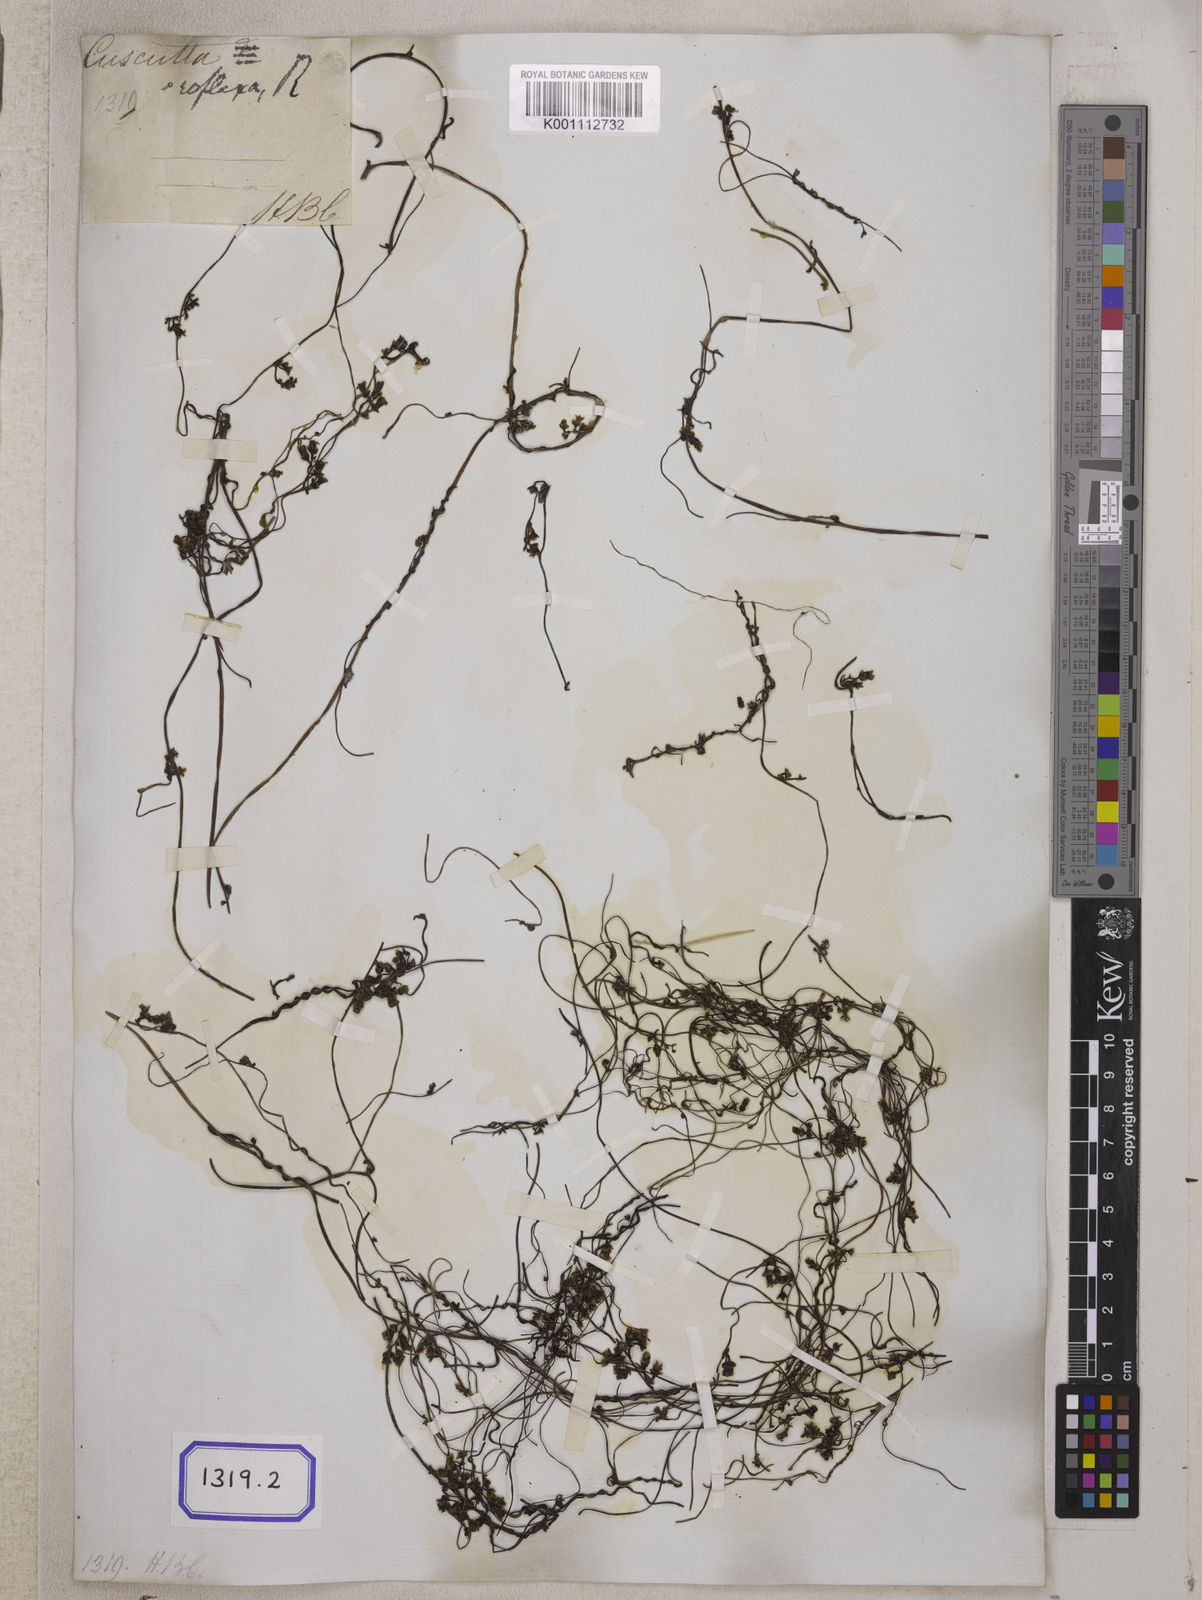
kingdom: Plantae
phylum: Tracheophyta
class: Magnoliopsida
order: Solanales
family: Convolvulaceae
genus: Cuscuta
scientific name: Cuscuta reflexa
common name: Giant dodder
